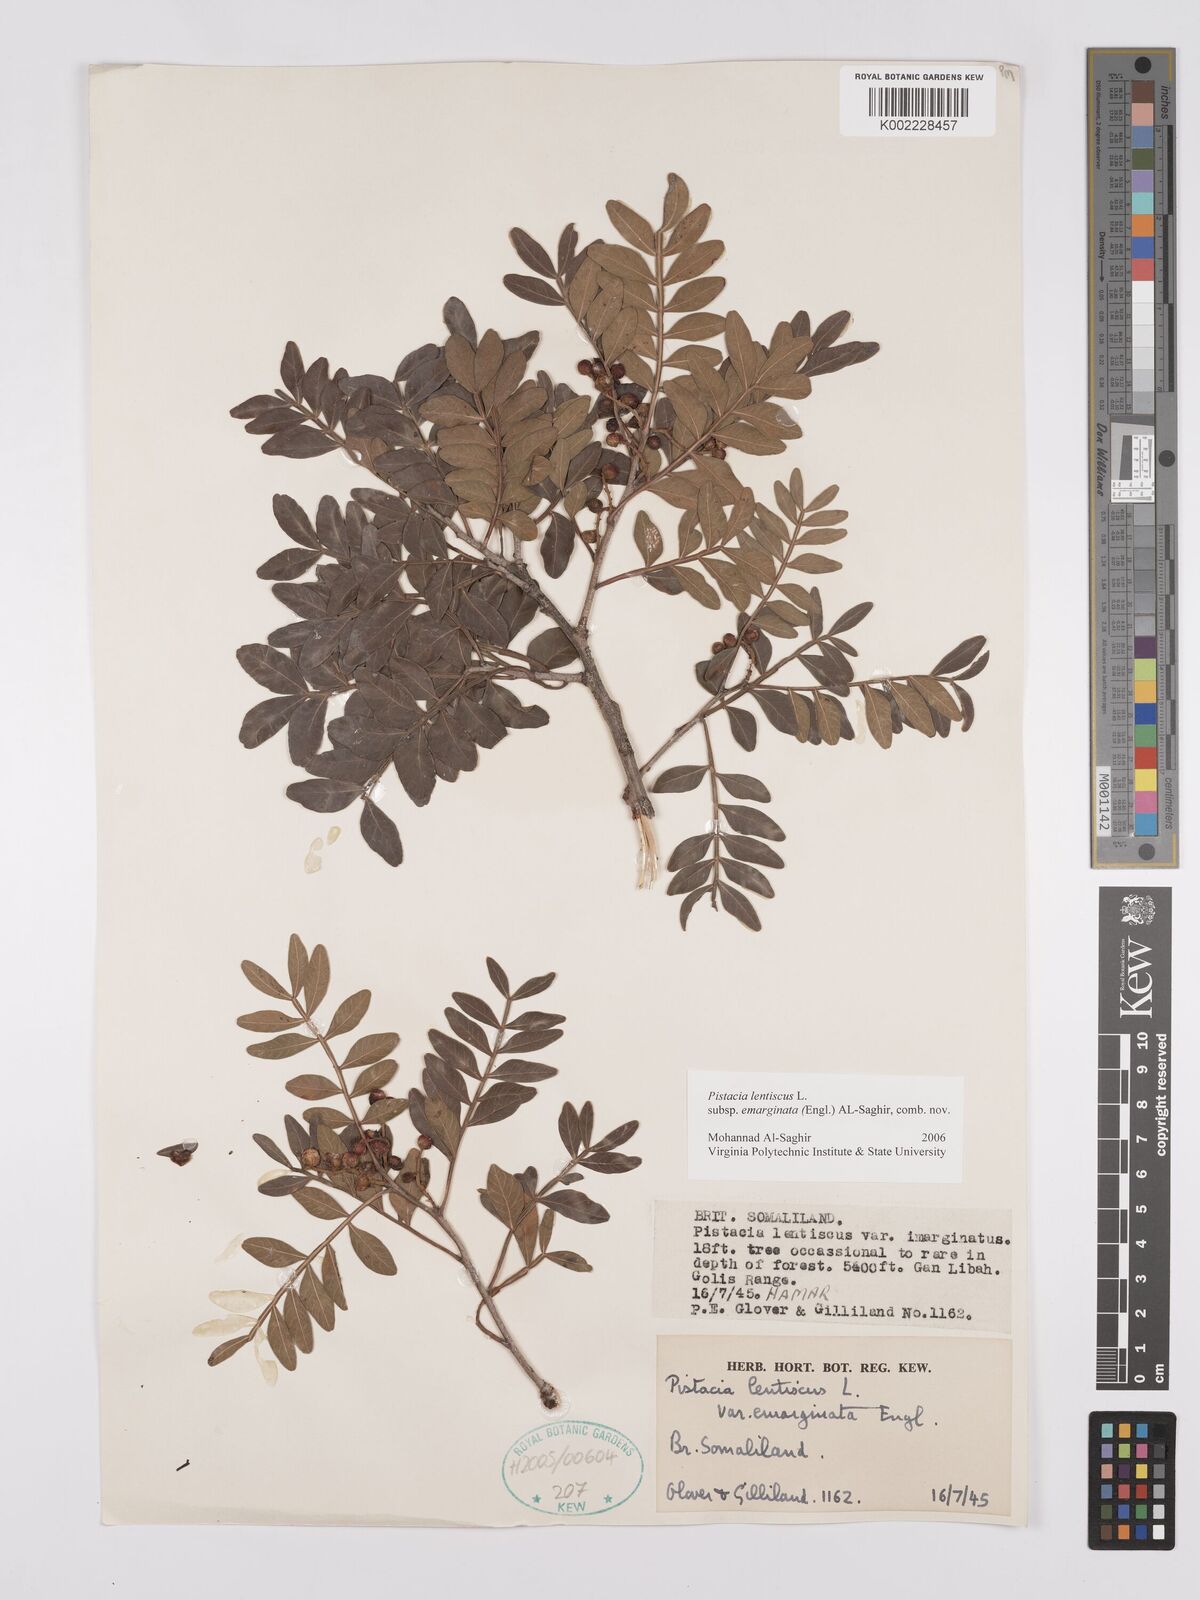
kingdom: Plantae
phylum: Tracheophyta
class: Magnoliopsida
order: Sapindales
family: Anacardiaceae
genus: Pistacia
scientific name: Pistacia lentiscus
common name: Lentisk
